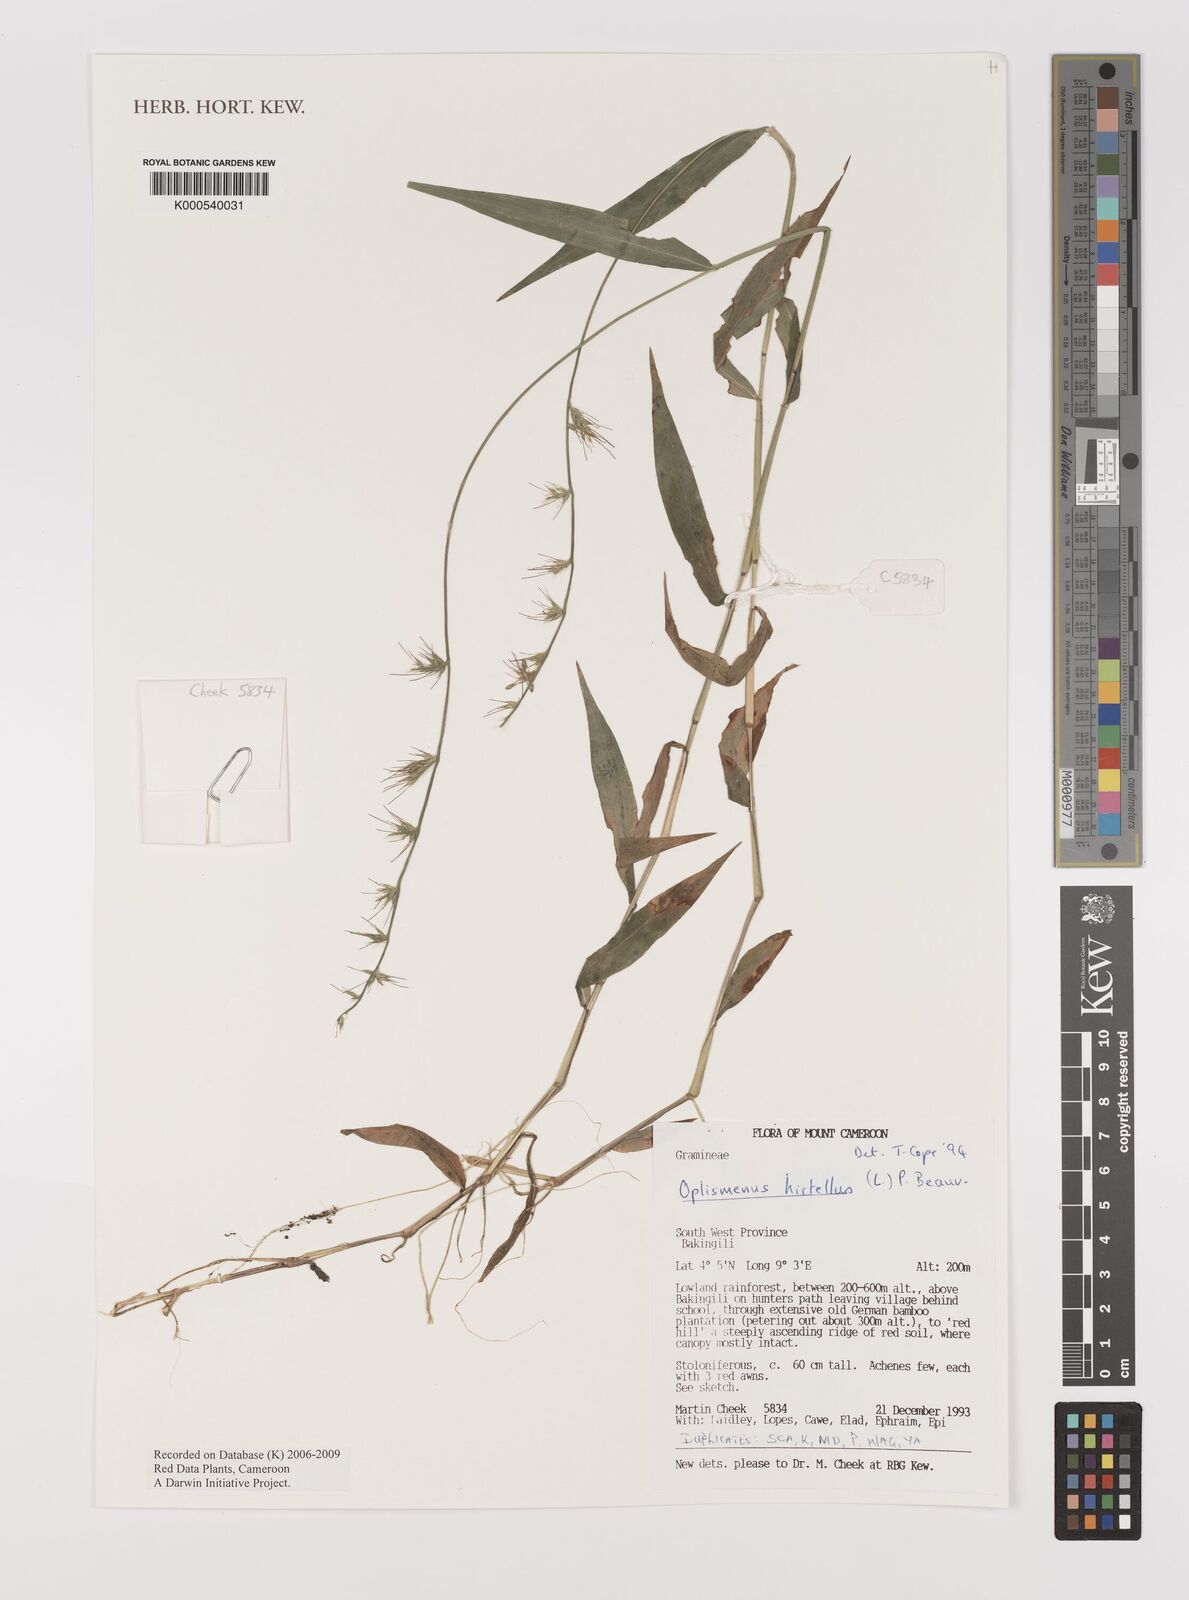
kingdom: Plantae
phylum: Tracheophyta
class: Liliopsida
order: Poales
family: Poaceae
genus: Oplismenus
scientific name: Oplismenus hirtellus
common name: Basketgrass
